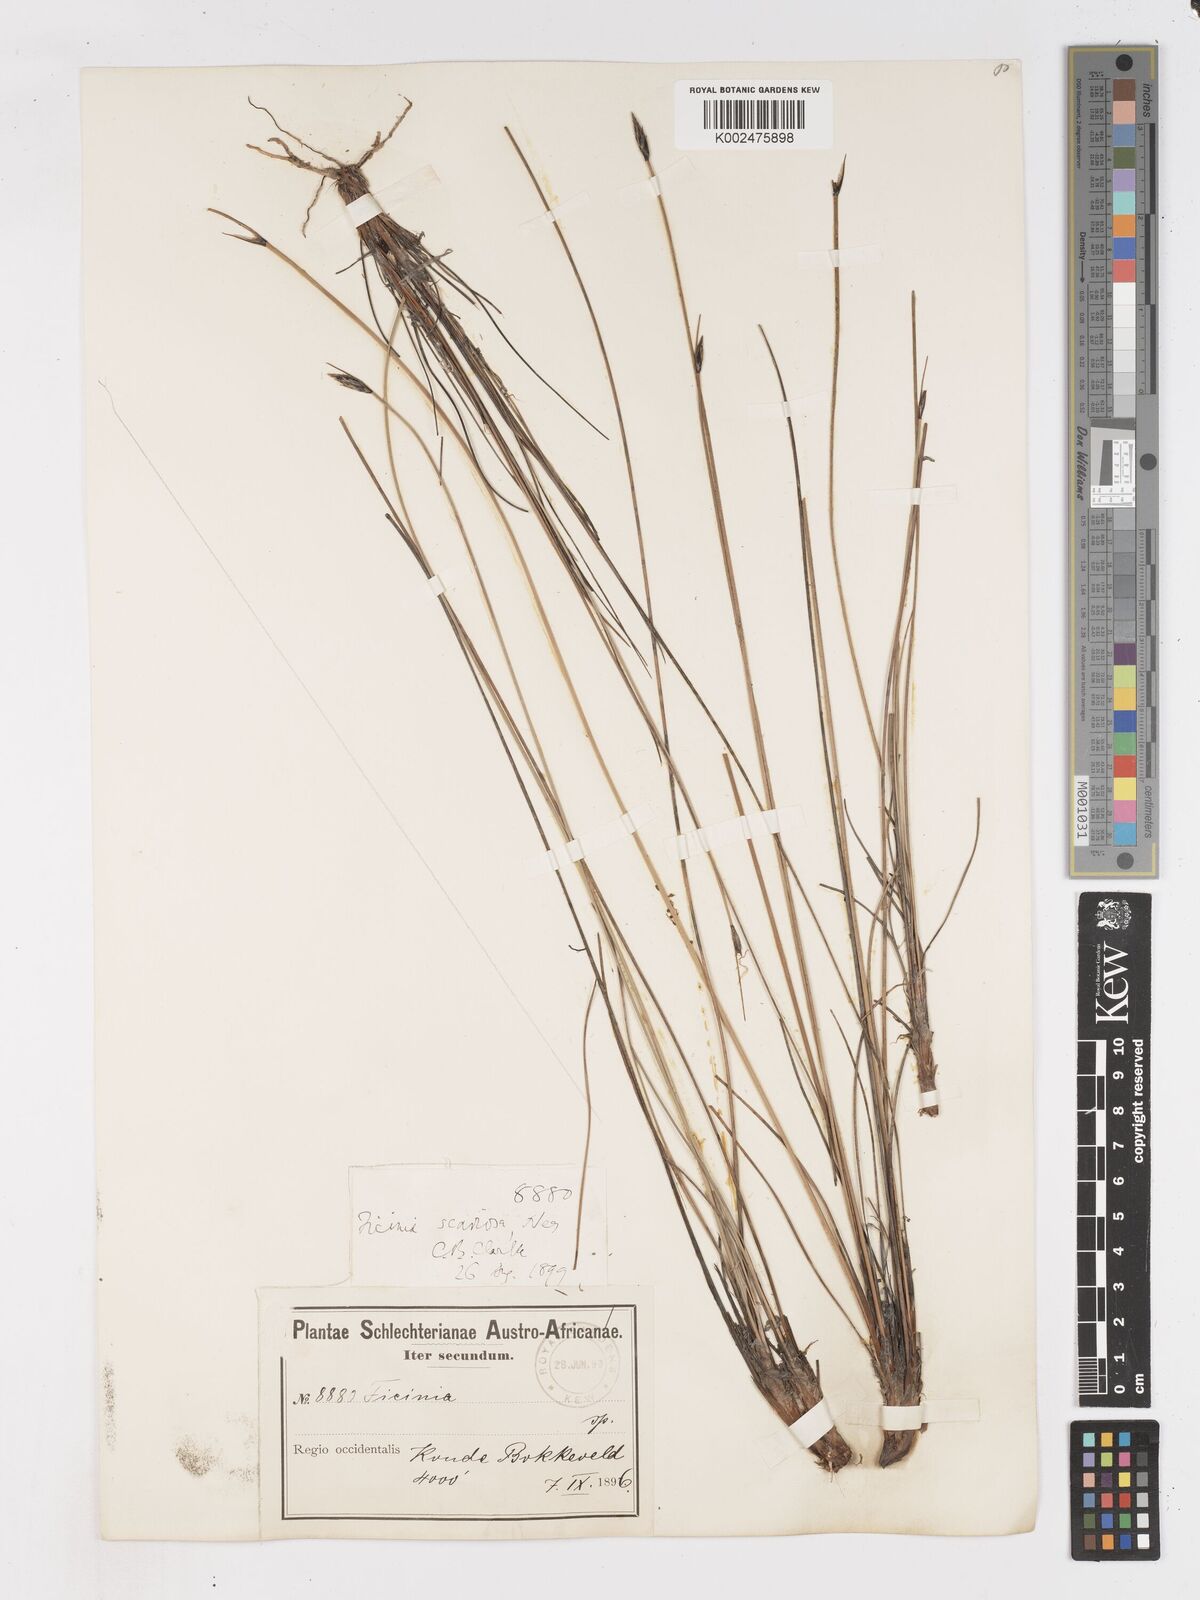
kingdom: Plantae
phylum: Tracheophyta
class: Liliopsida
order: Poales
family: Cyperaceae
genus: Ficinia
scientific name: Ficinia deusta
